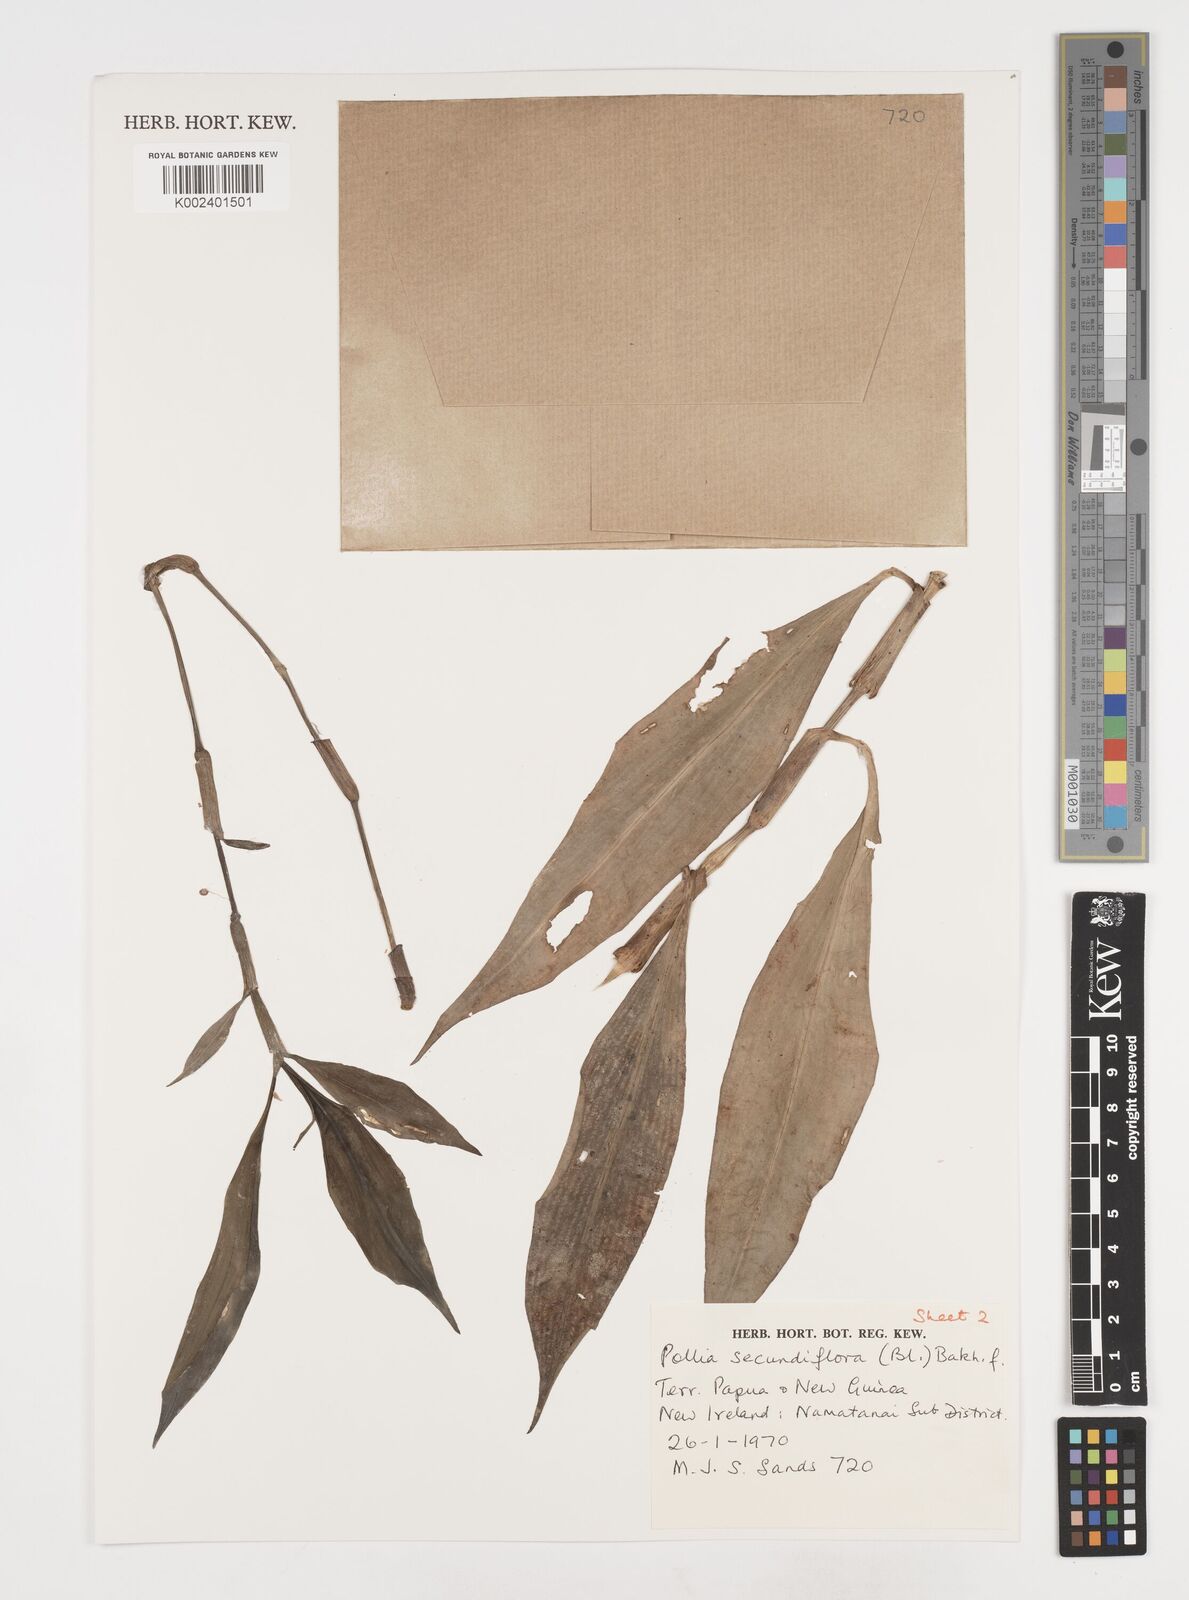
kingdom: Plantae
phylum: Tracheophyta
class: Liliopsida
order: Commelinales
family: Commelinaceae
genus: Pollia
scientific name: Pollia secundiflora
